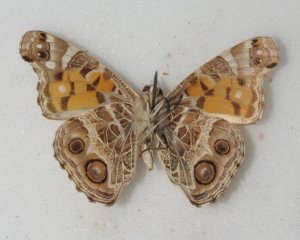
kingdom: Animalia
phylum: Arthropoda
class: Insecta
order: Lepidoptera
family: Nymphalidae
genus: Vanessa
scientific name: Vanessa virginiensis
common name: American Lady
